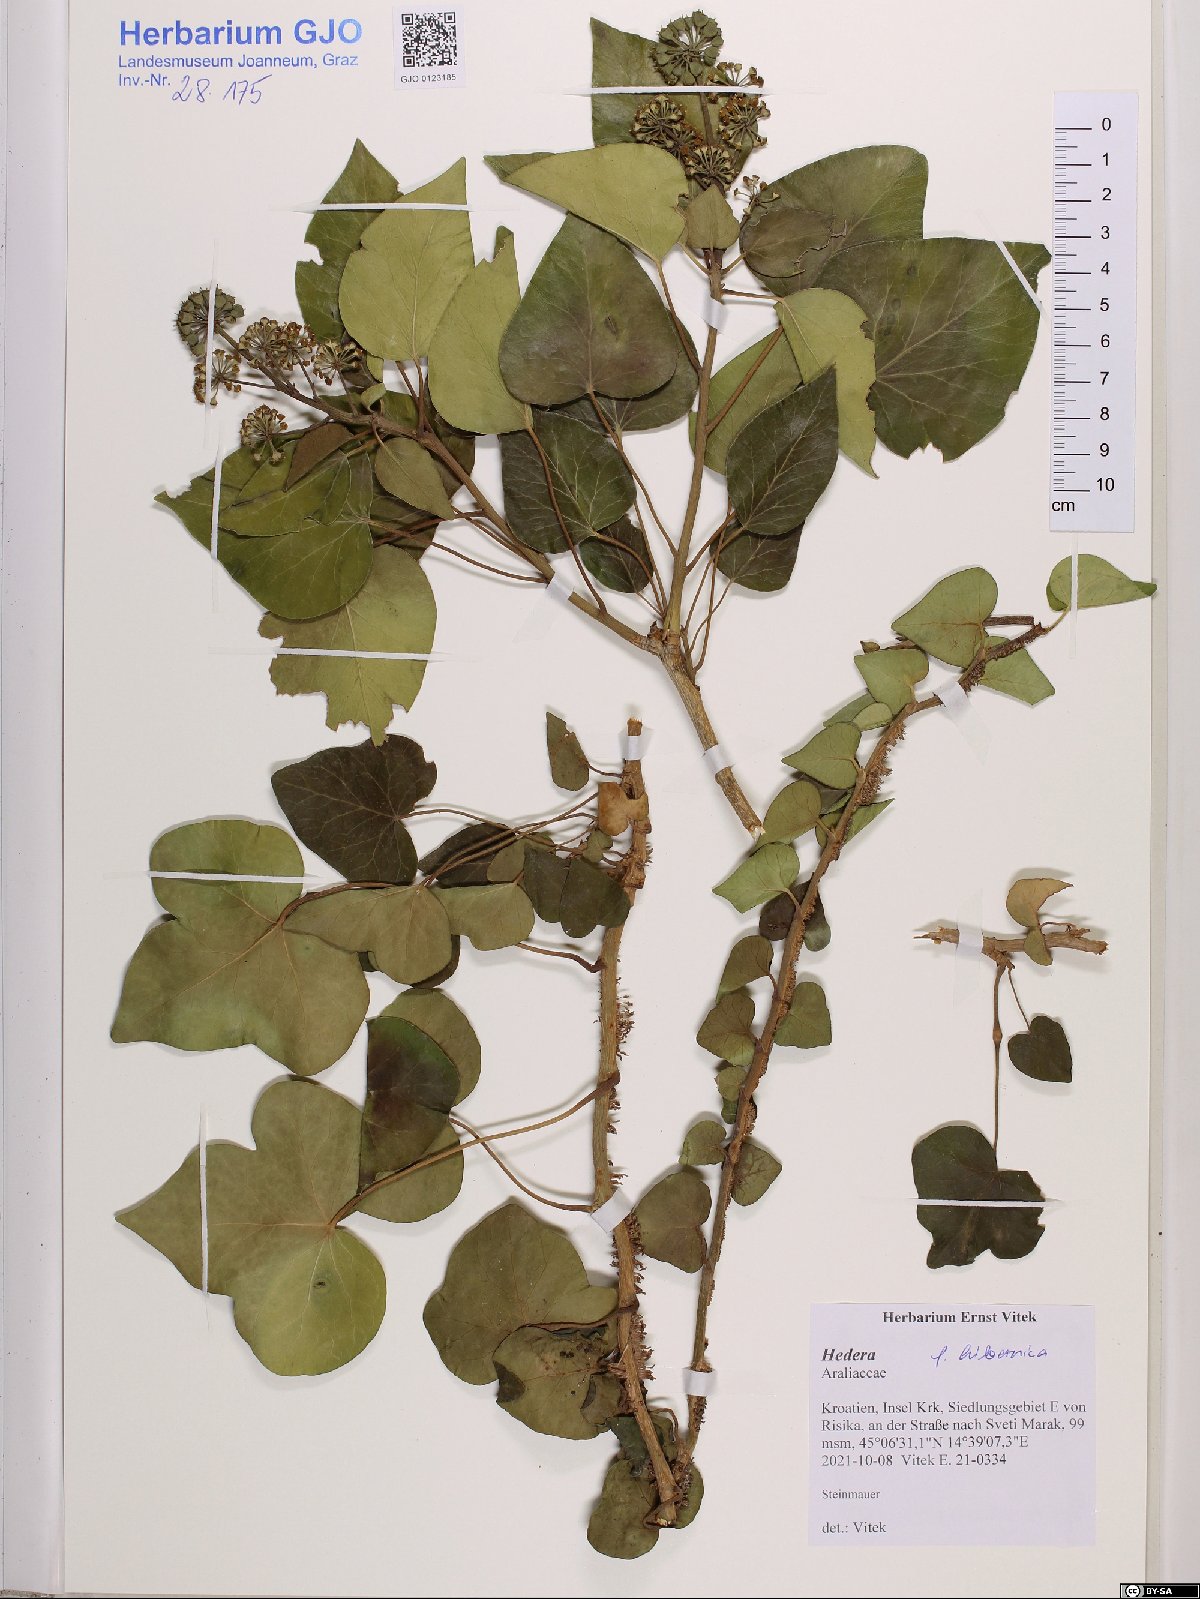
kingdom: Plantae
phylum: Tracheophyta
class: Magnoliopsida
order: Apiales
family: Araliaceae
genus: Hedera
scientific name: Hedera hibernica
